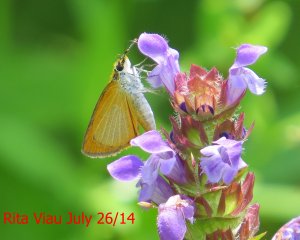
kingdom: Animalia
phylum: Arthropoda
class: Insecta
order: Lepidoptera
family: Hesperiidae
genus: Ancyloxypha
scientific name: Ancyloxypha numitor
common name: Least Skipper
